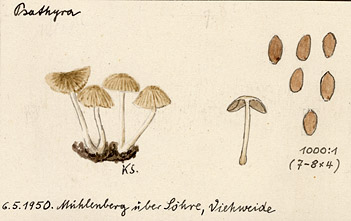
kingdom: Fungi
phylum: Basidiomycota
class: Agaricomycetes
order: Agaricales
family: Psathyrellaceae
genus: Psathyrella
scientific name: Psathyrella
